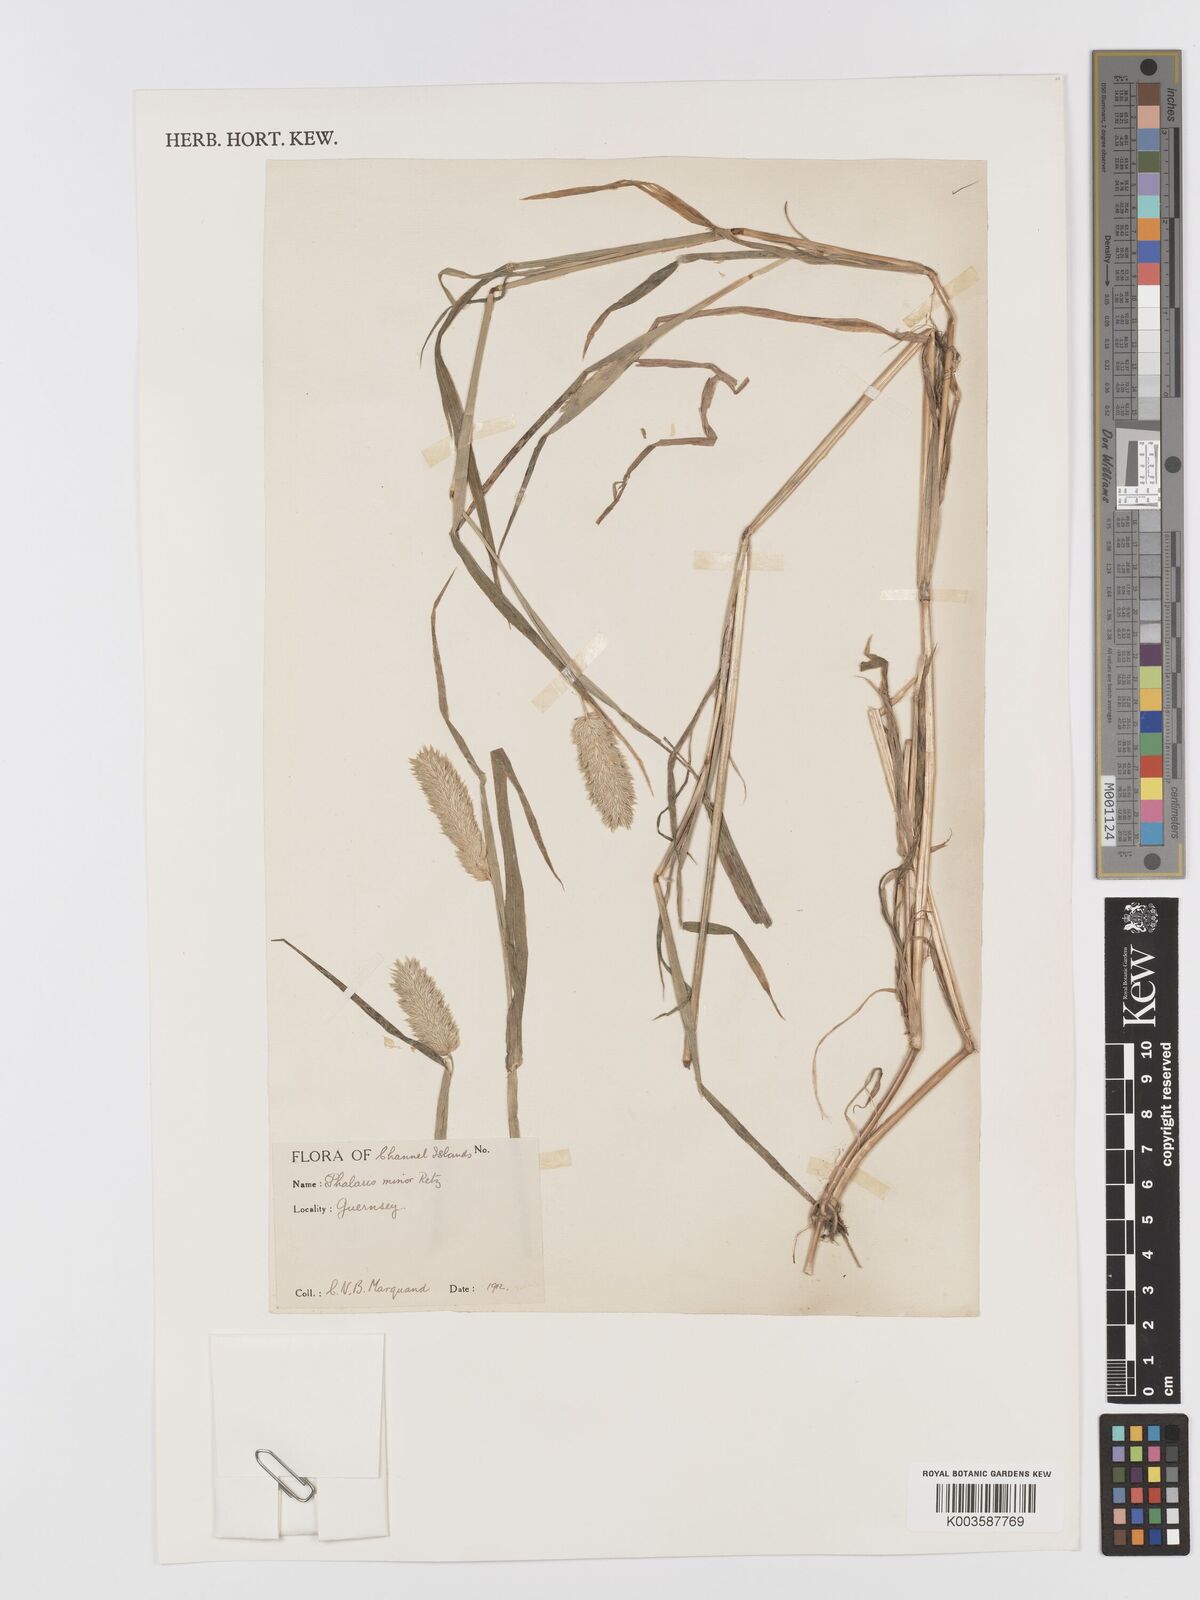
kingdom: Plantae
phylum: Tracheophyta
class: Liliopsida
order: Poales
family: Poaceae
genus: Phalaris
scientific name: Phalaris minor
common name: Littleseed canarygrass
